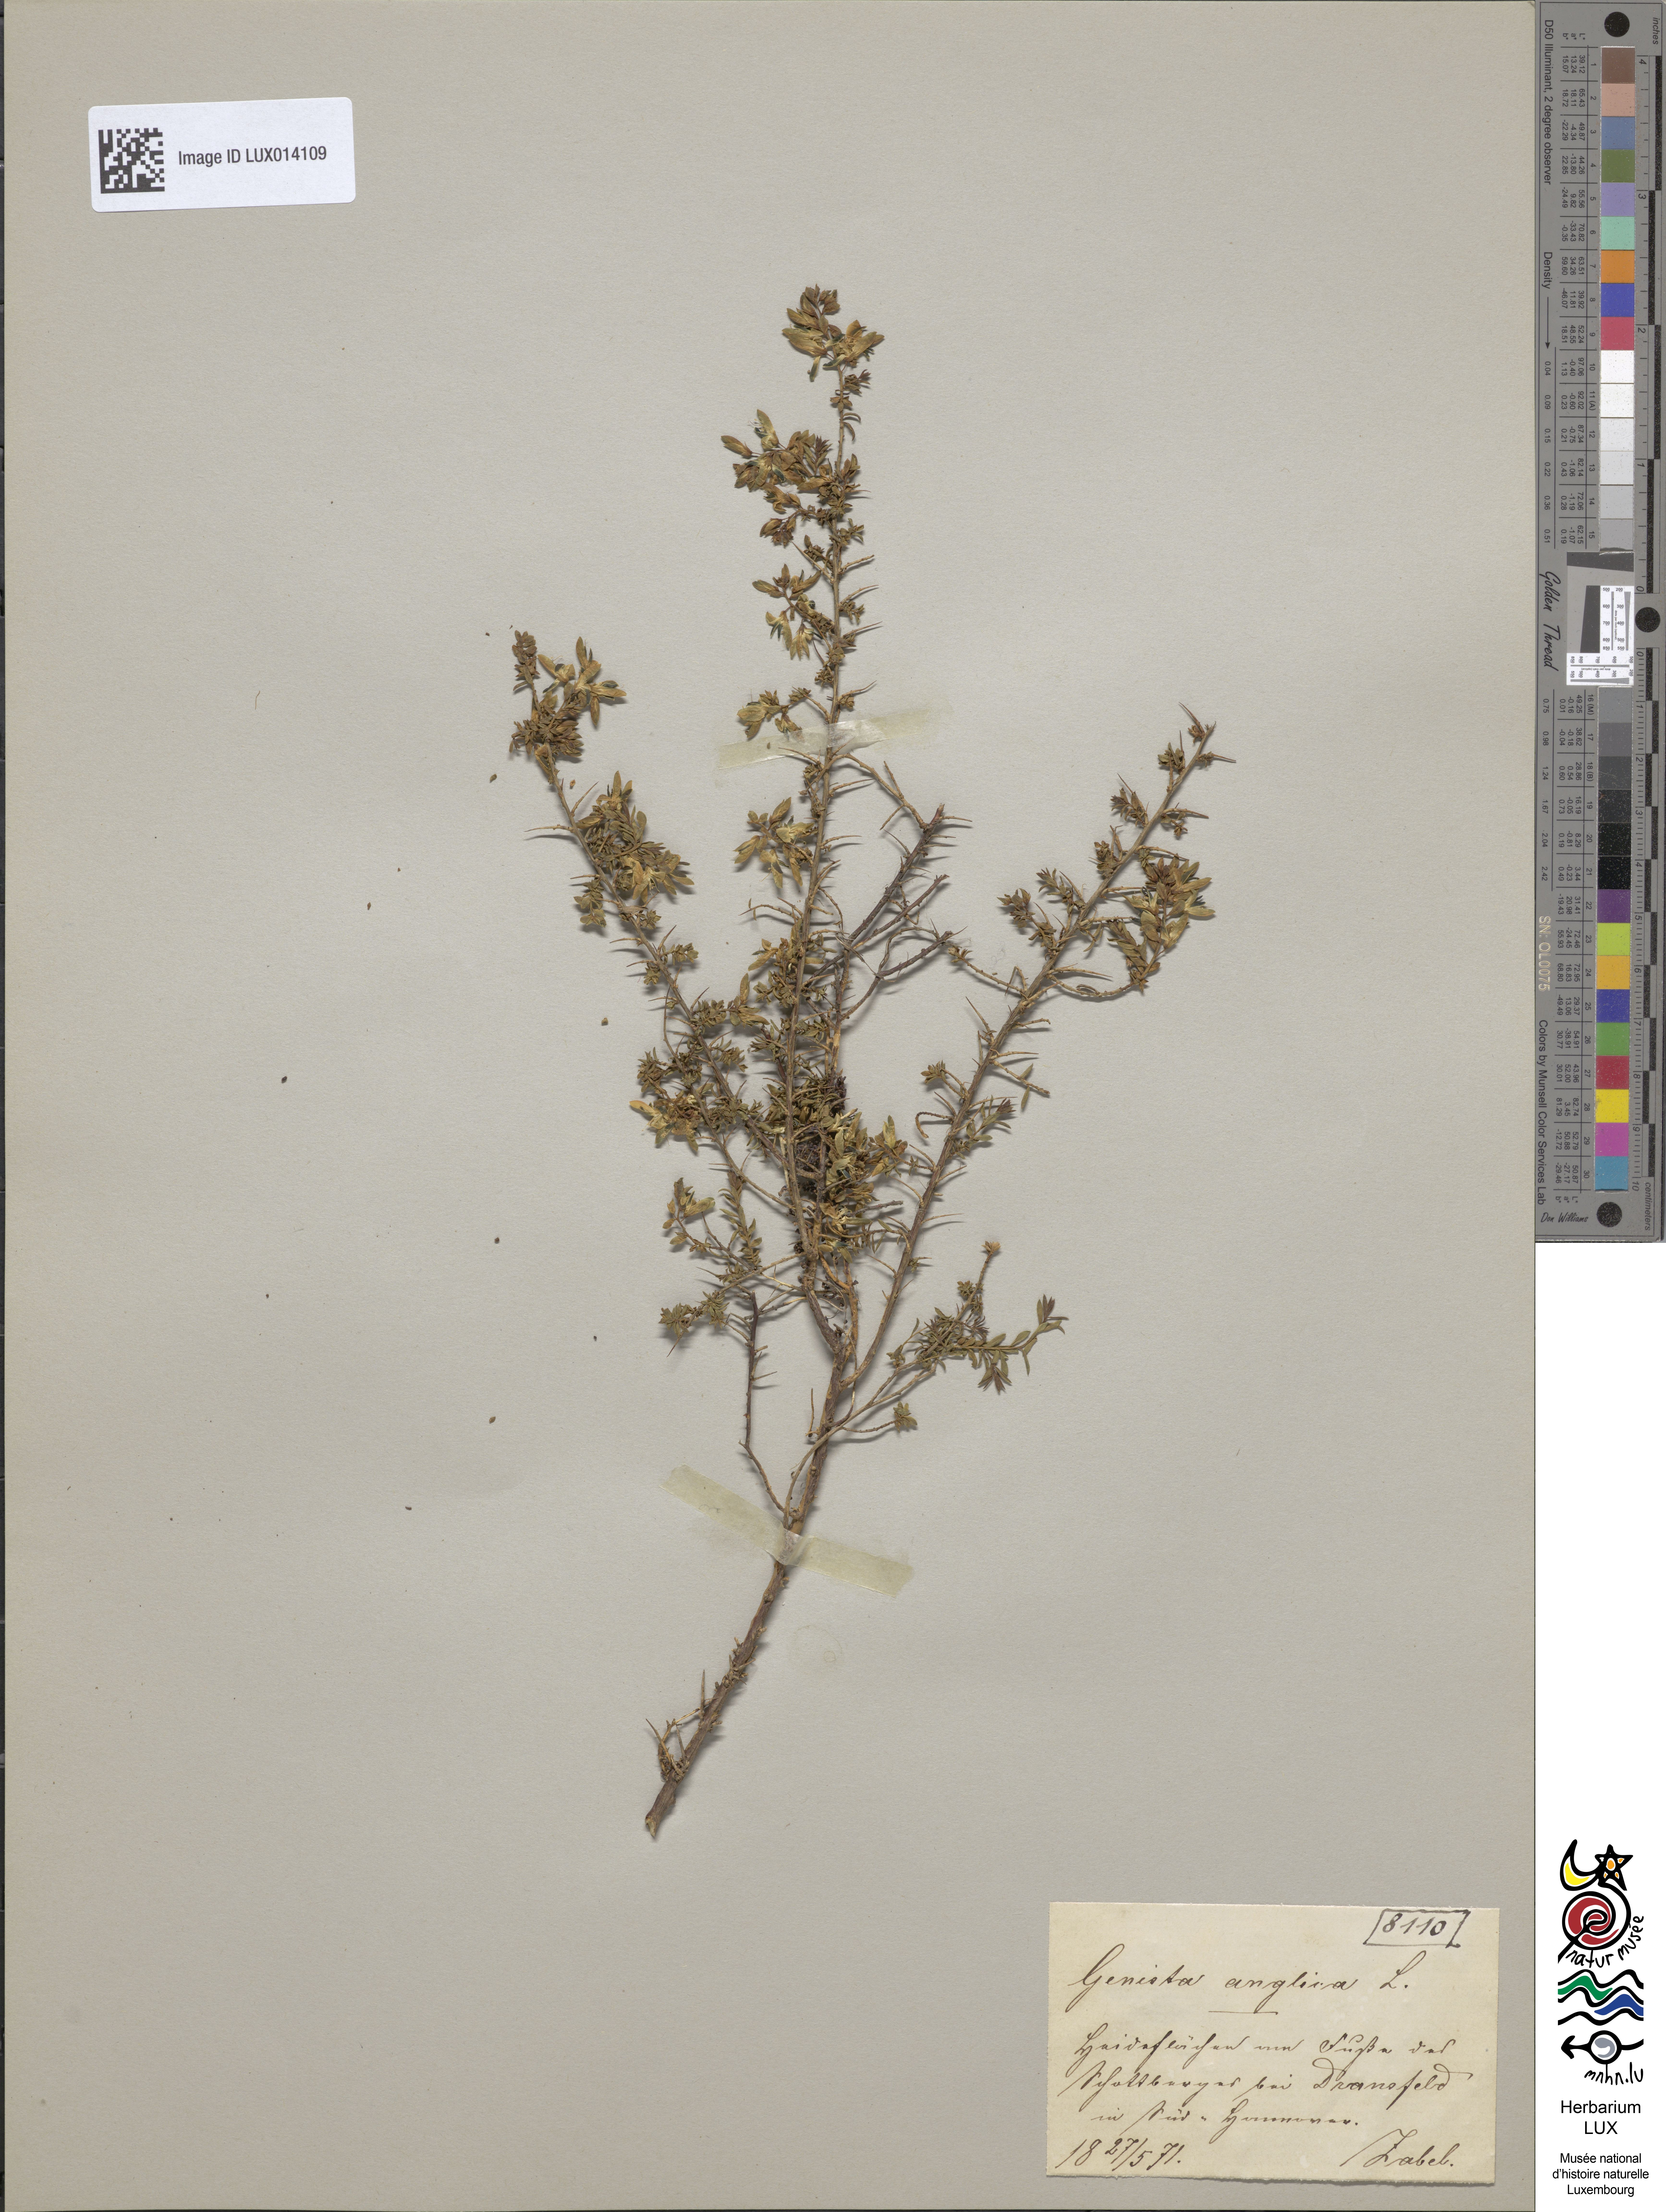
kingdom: Plantae
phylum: Tracheophyta
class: Magnoliopsida
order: Fabales
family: Fabaceae
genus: Genista
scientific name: Genista anglica
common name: Petty whin
